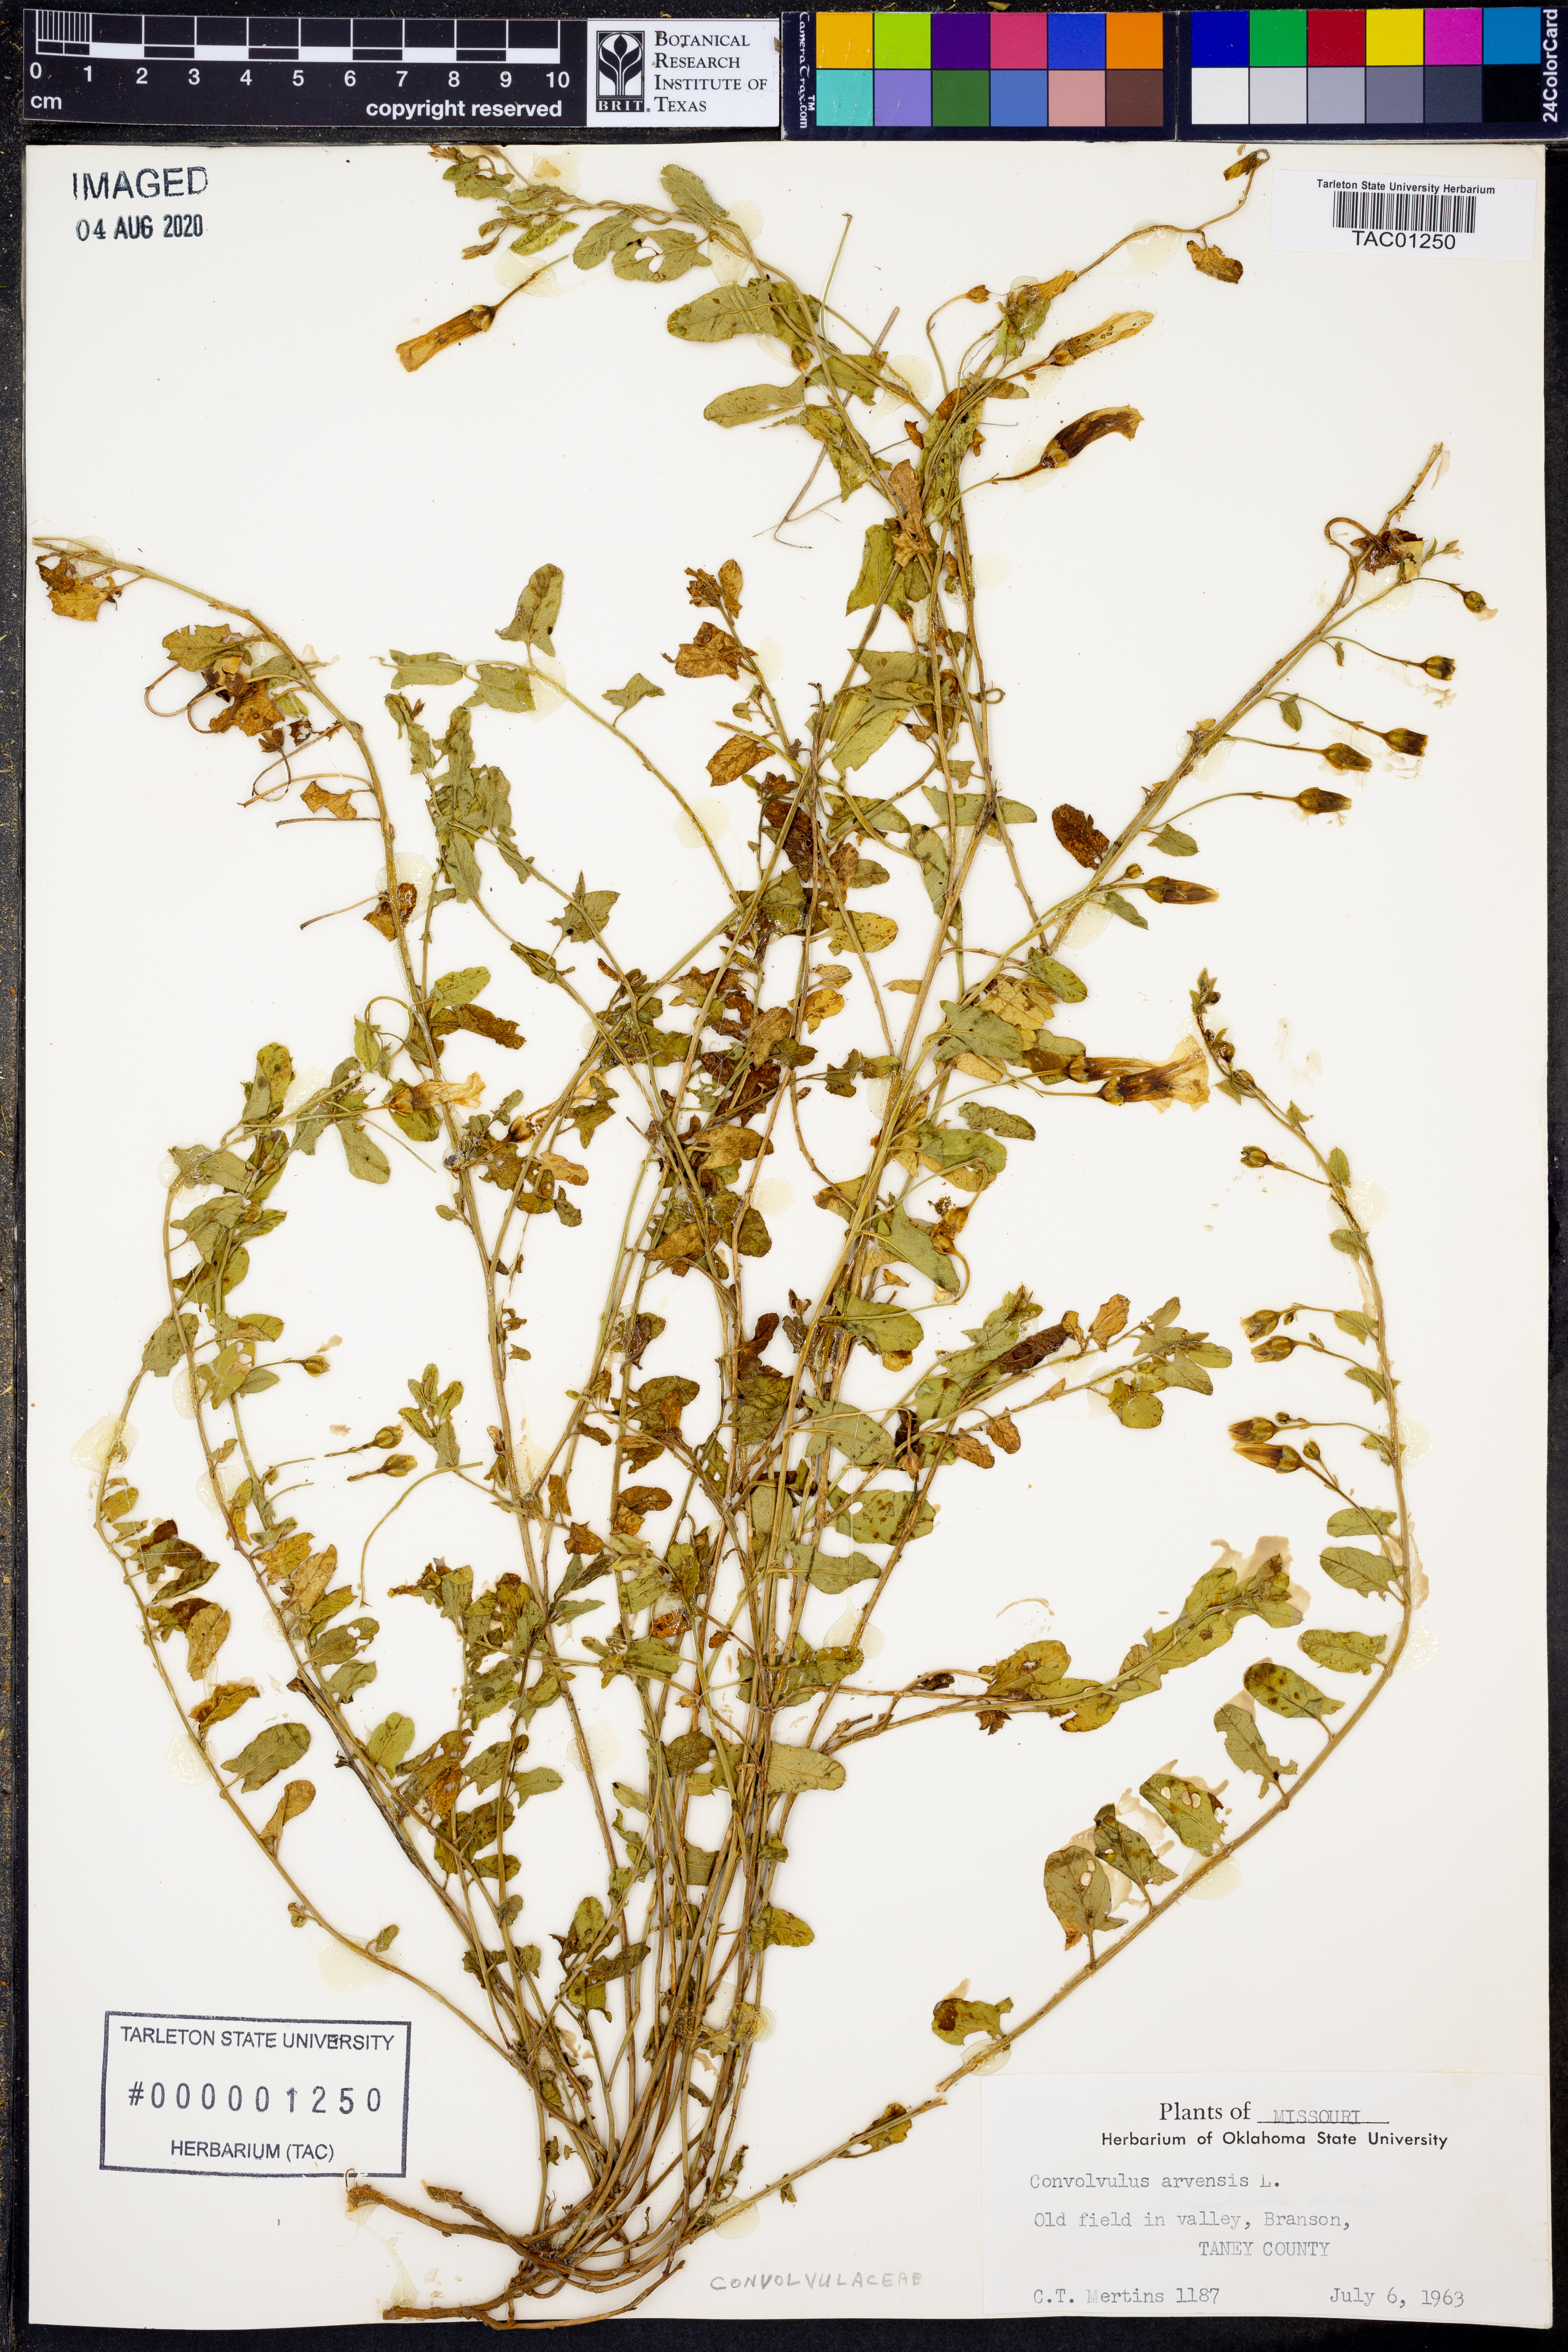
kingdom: Plantae
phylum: Tracheophyta
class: Magnoliopsida
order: Solanales
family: Convolvulaceae
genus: Convolvulus
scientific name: Convolvulus arvensis
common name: Field bindweed
